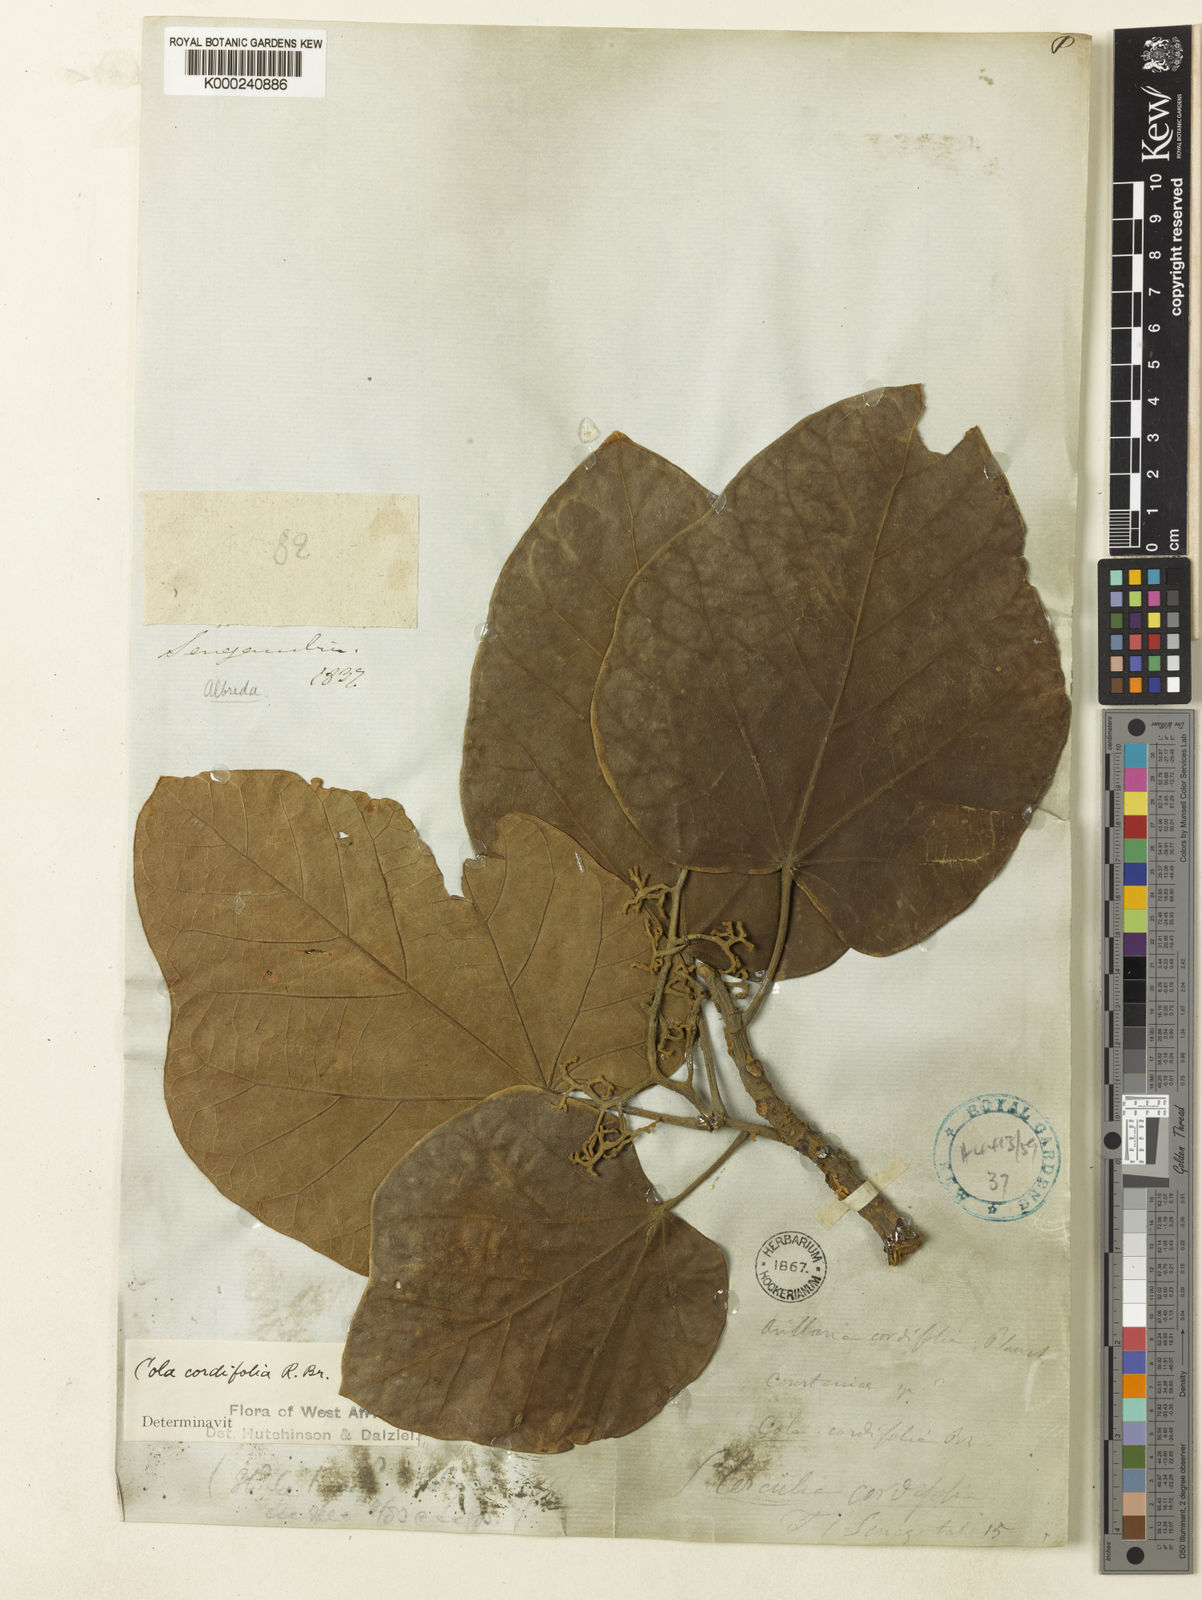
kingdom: Plantae
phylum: Tracheophyta
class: Magnoliopsida
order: Malvales
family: Malvaceae
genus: Cola
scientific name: Cola cordifolia
